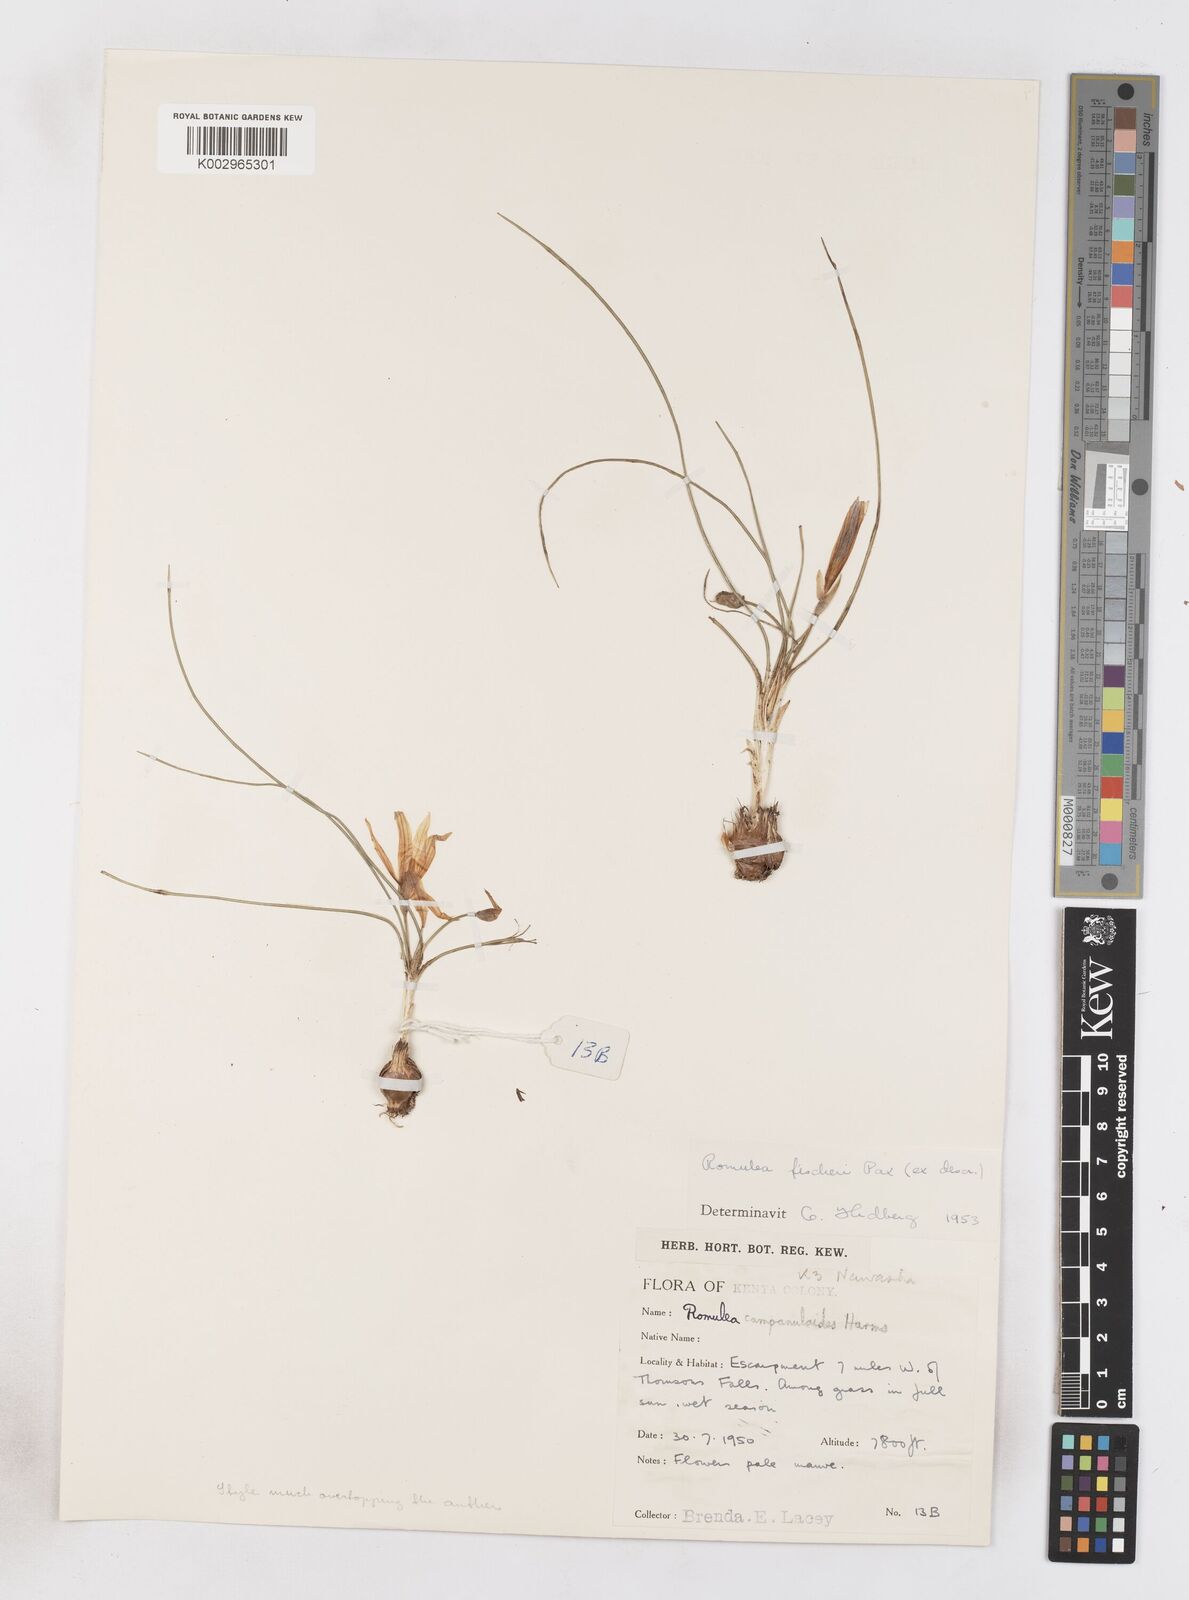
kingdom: Plantae
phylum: Tracheophyta
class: Liliopsida
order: Asparagales
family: Iridaceae
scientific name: Iridaceae
